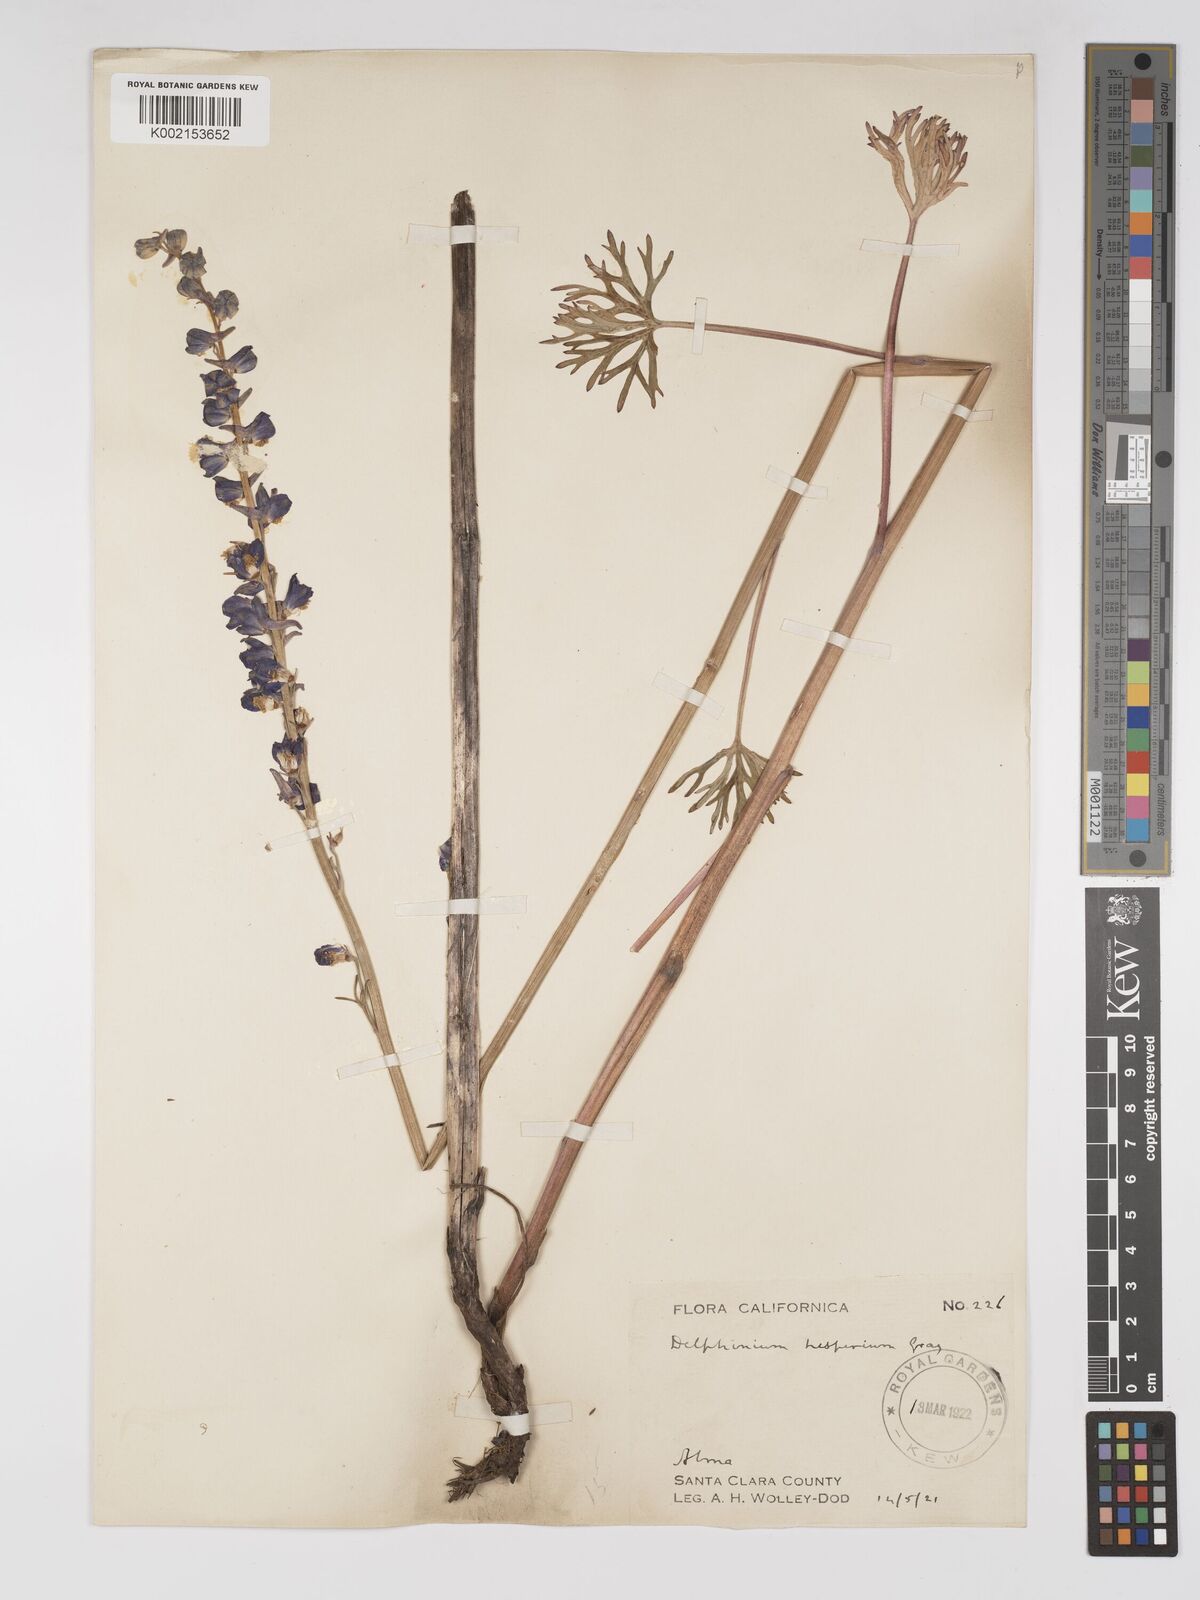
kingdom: Plantae
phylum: Tracheophyta
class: Magnoliopsida
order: Ranunculales
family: Ranunculaceae
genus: Delphinium
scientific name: Delphinium hesperium
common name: Western larkspur
